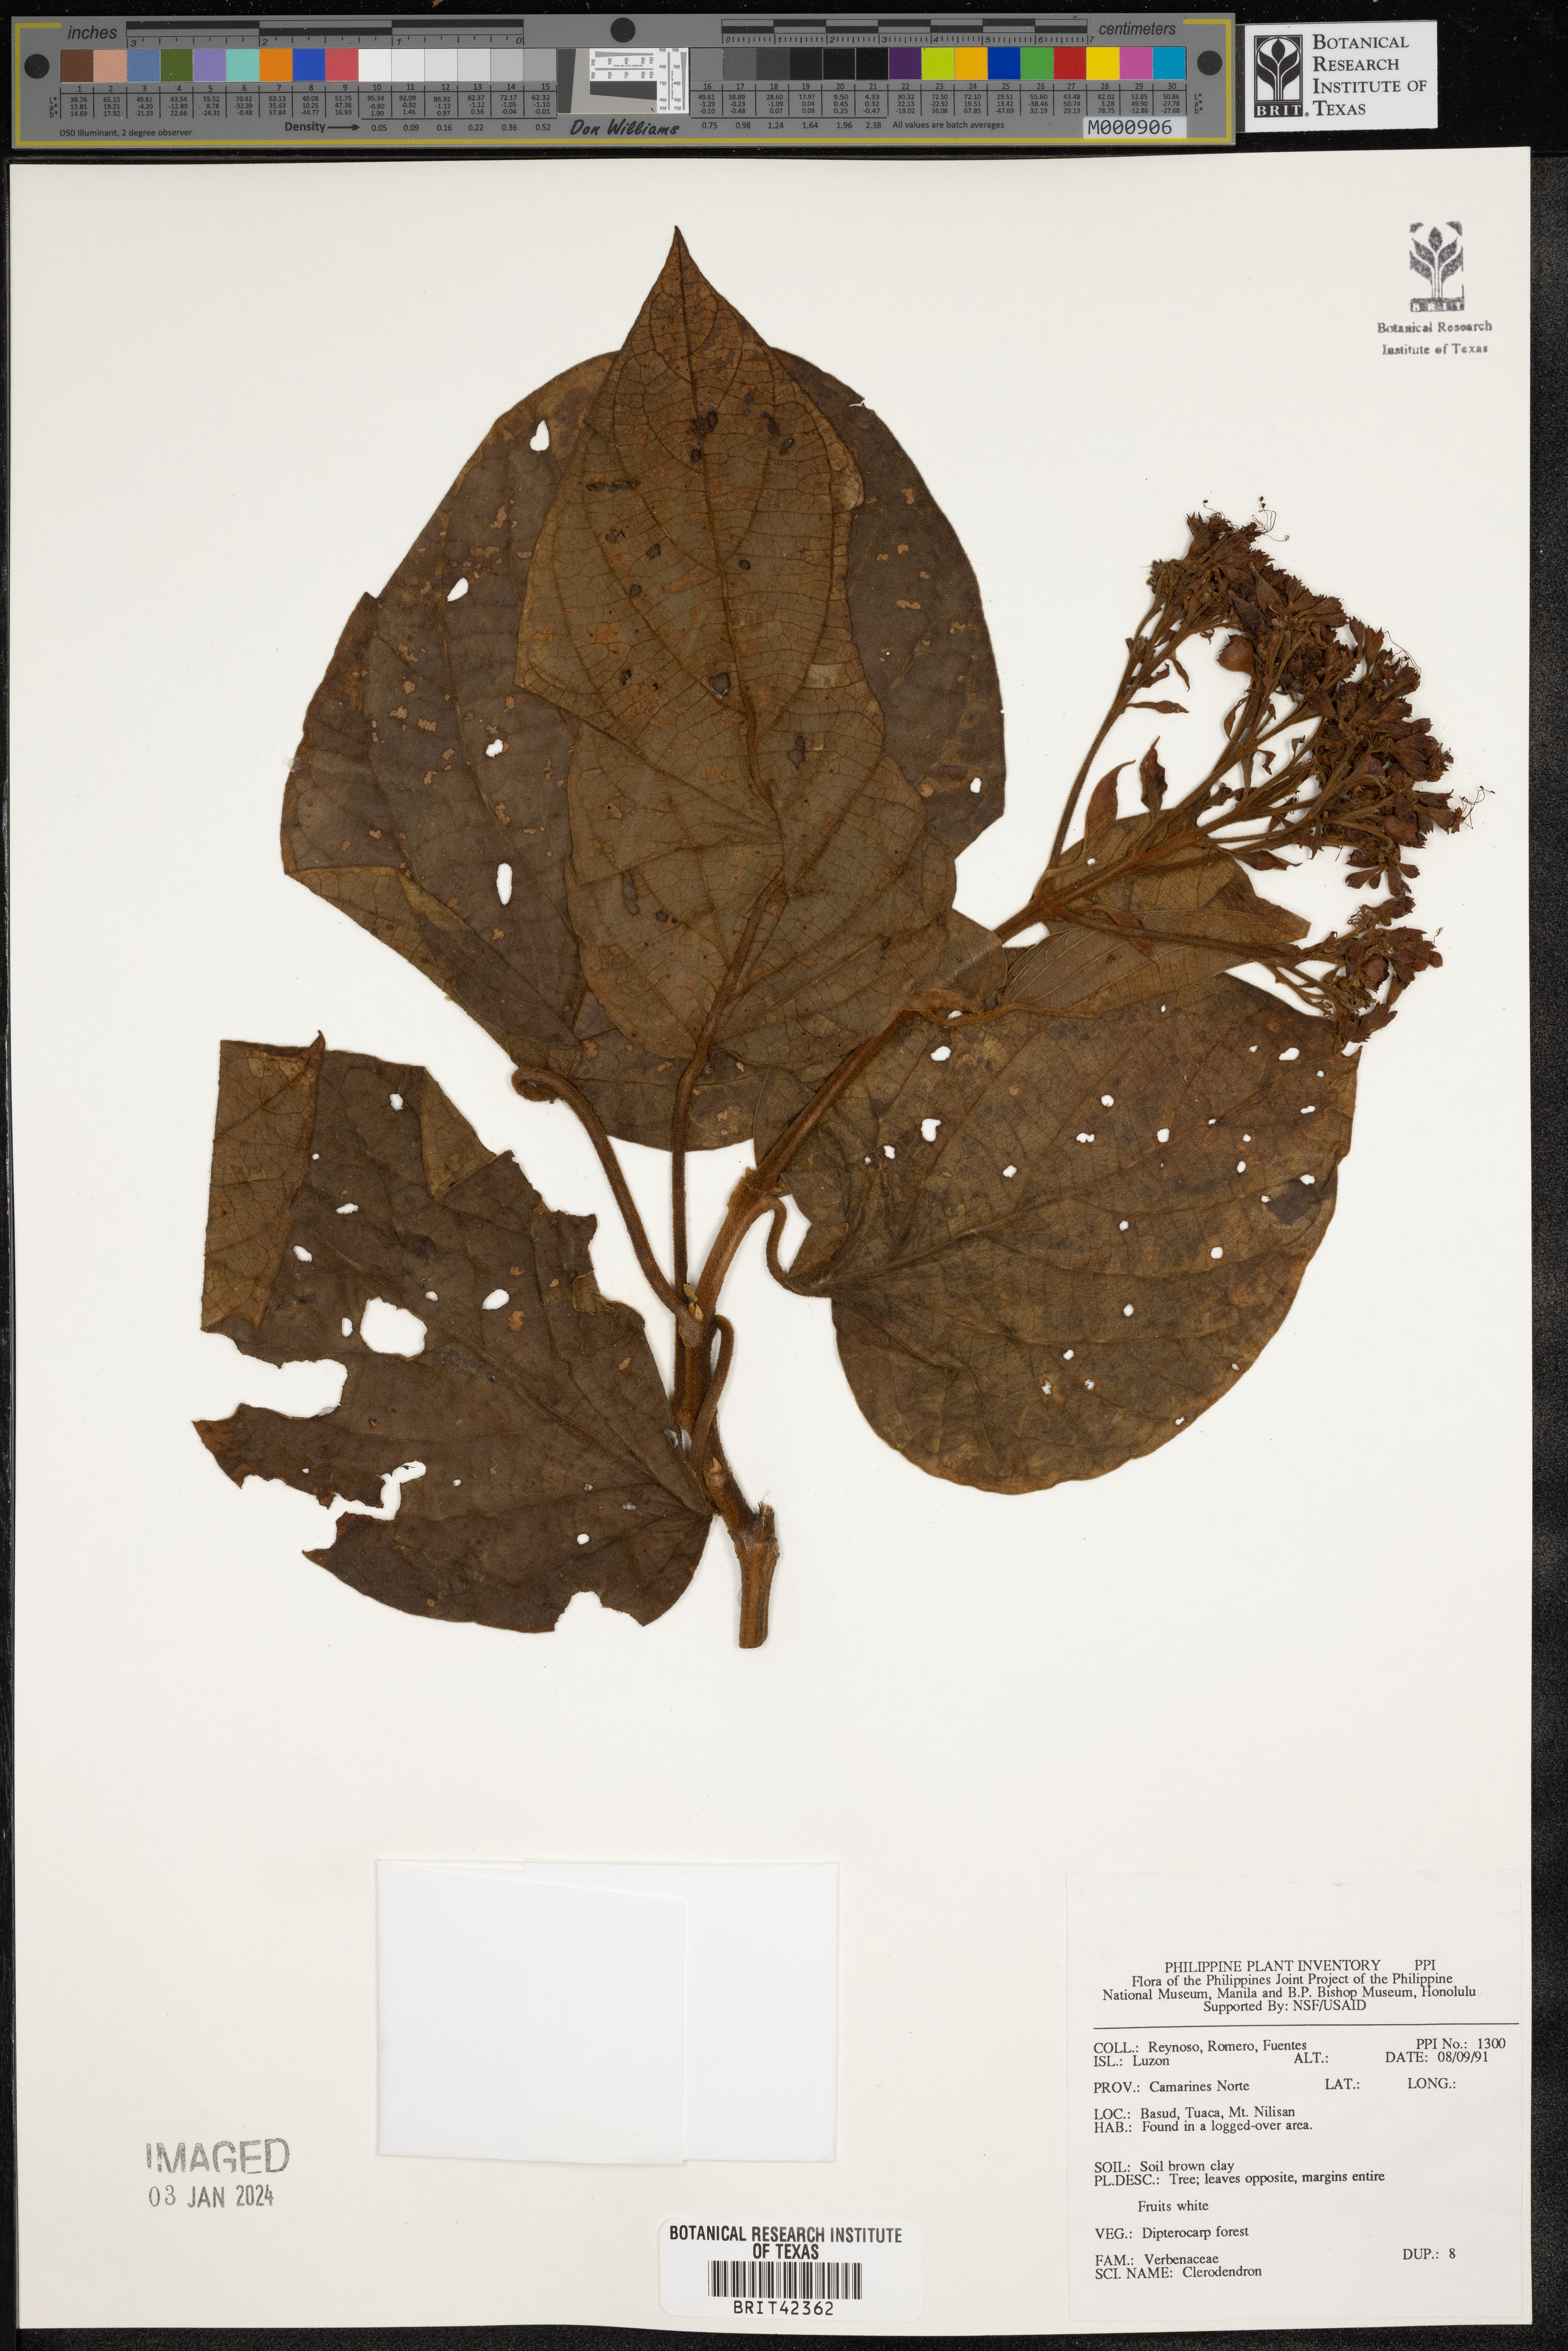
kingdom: Plantae
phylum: Tracheophyta
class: Magnoliopsida
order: Lamiales
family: Lamiaceae
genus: Clerodendrum
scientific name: Clerodendrum
